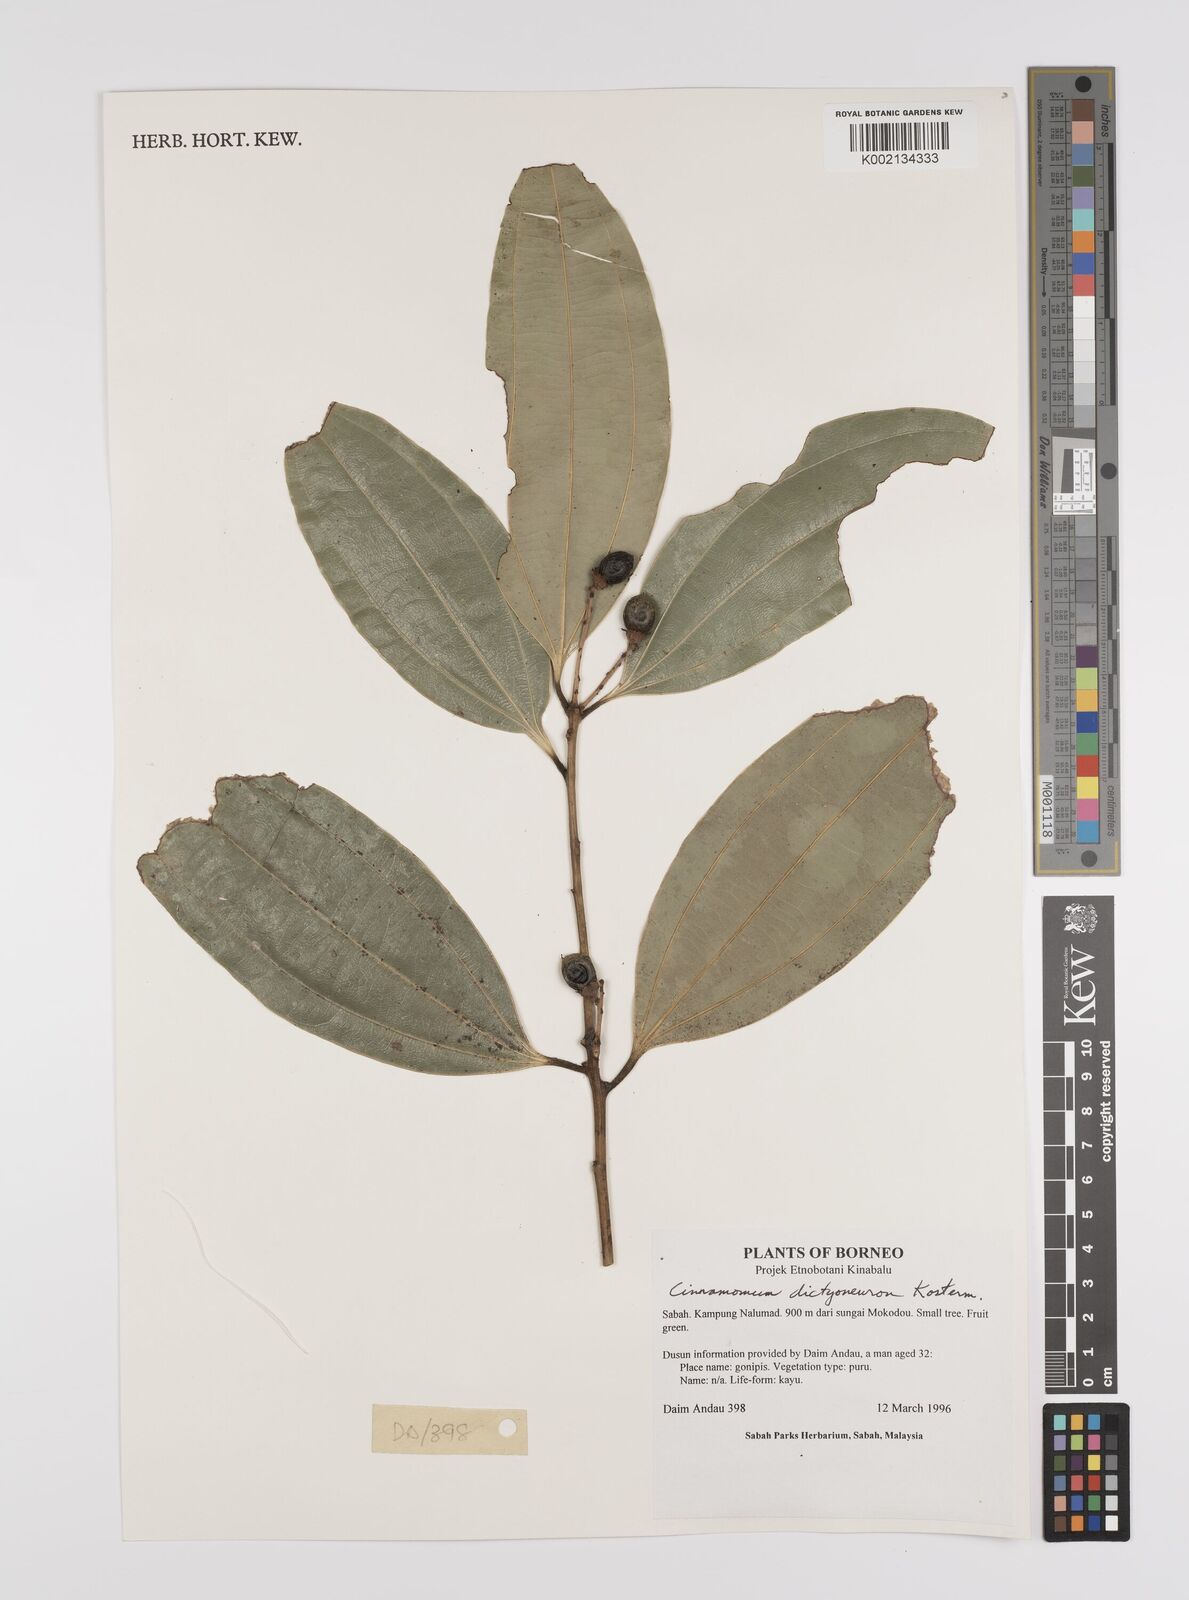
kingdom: Plantae
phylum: Tracheophyta
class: Magnoliopsida
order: Laurales
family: Lauraceae
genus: Cinnamomum
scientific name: Cinnamomum racemosum
